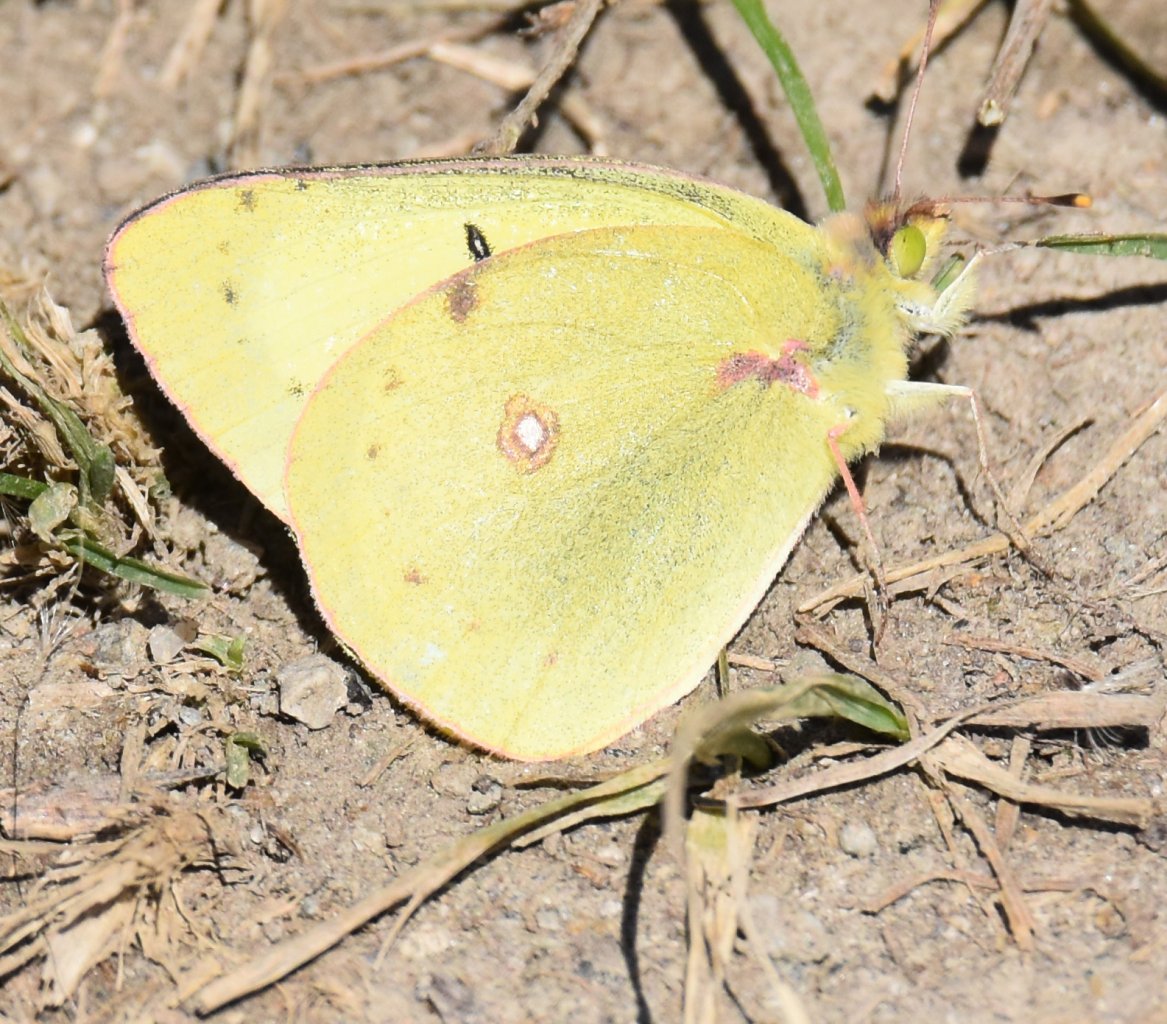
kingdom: Animalia
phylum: Arthropoda
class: Insecta
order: Lepidoptera
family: Pieridae
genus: Colias
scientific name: Colias philodice
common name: Clouded Sulphur
